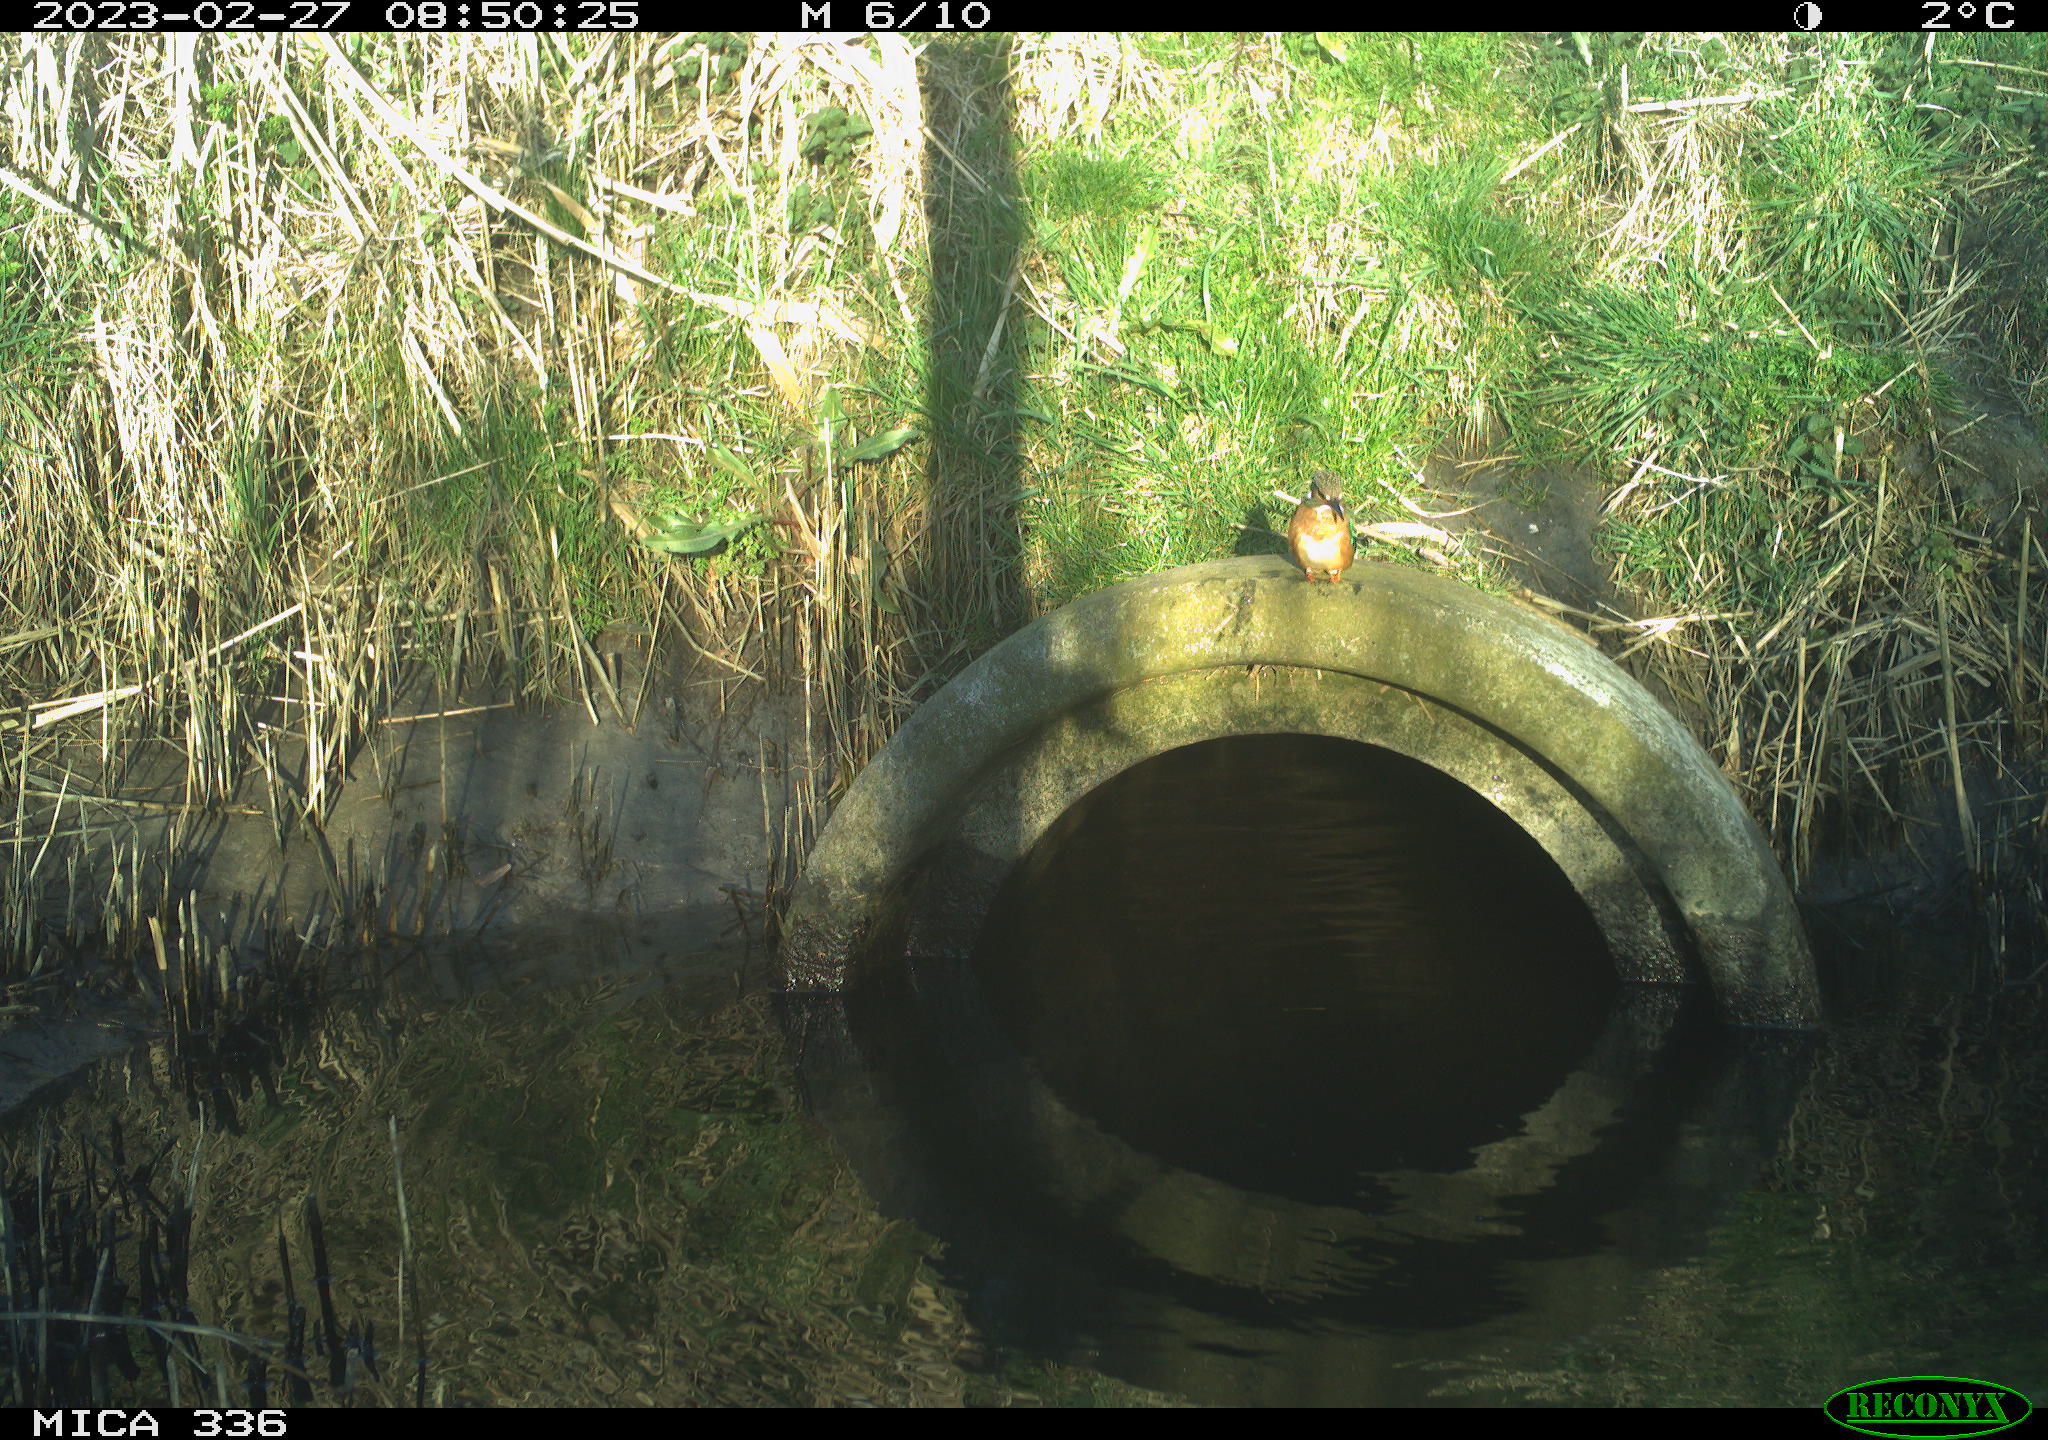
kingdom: Animalia
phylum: Chordata
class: Aves
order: Coraciiformes
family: Alcedinidae
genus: Alcedo
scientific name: Alcedo atthis
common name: Common kingfisher
